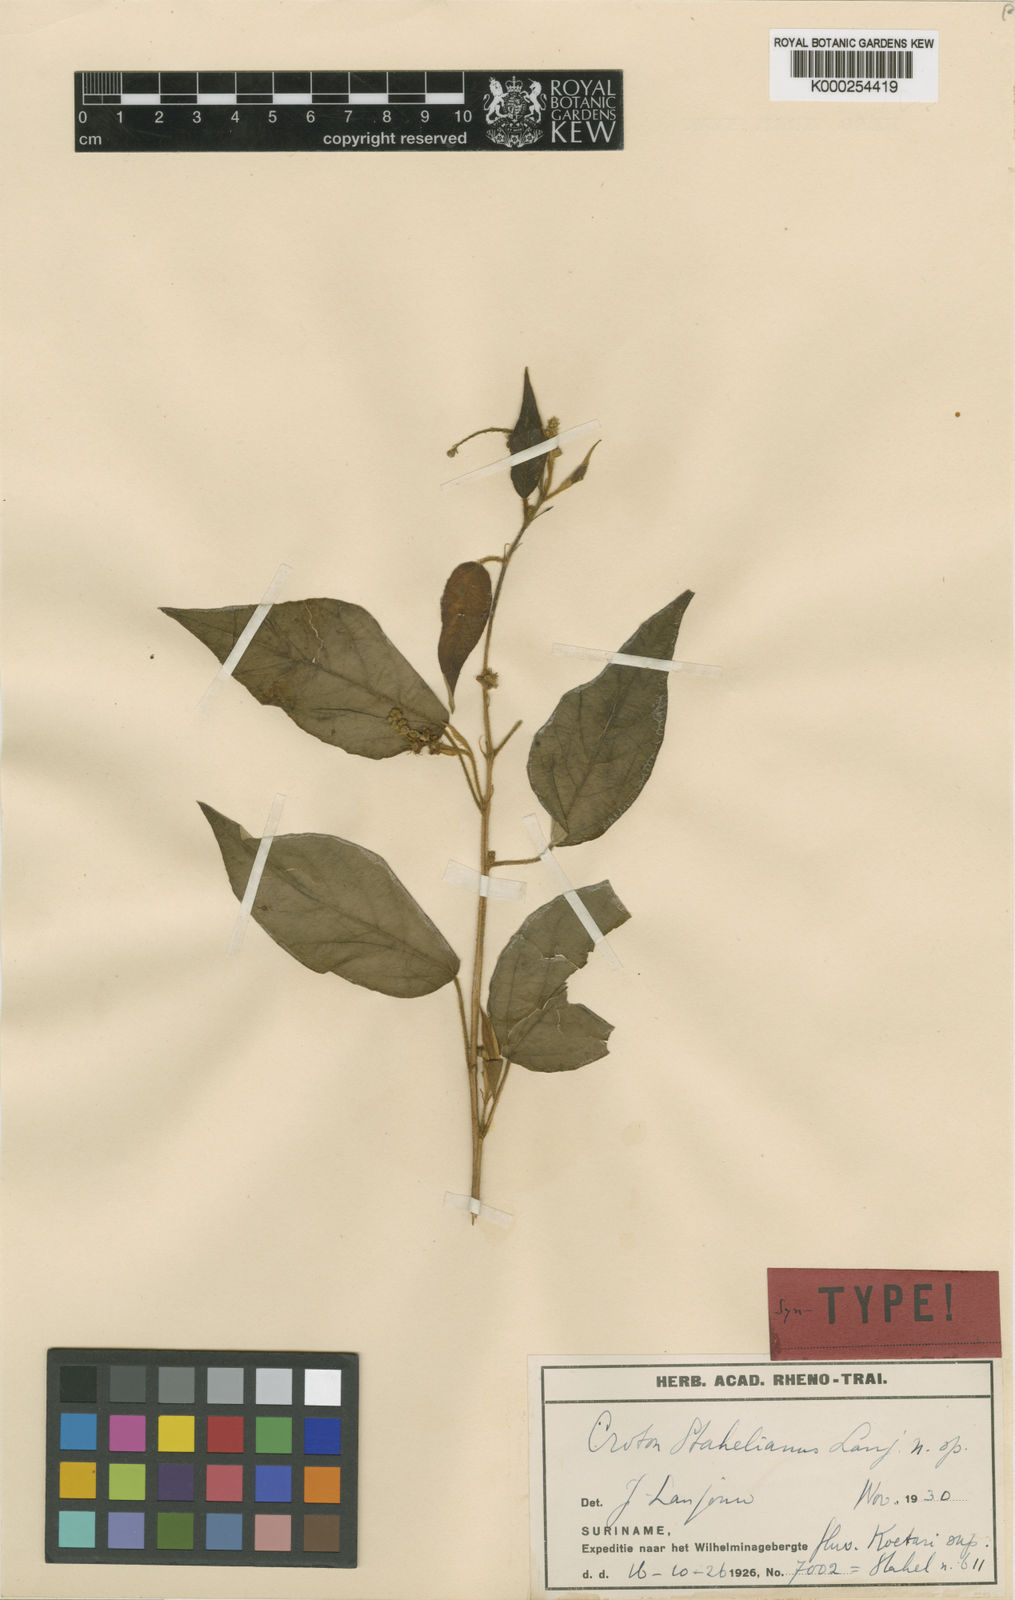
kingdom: Plantae
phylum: Tracheophyta
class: Magnoliopsida
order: Malpighiales
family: Euphorbiaceae
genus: Croton
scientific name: Croton stahelianus
